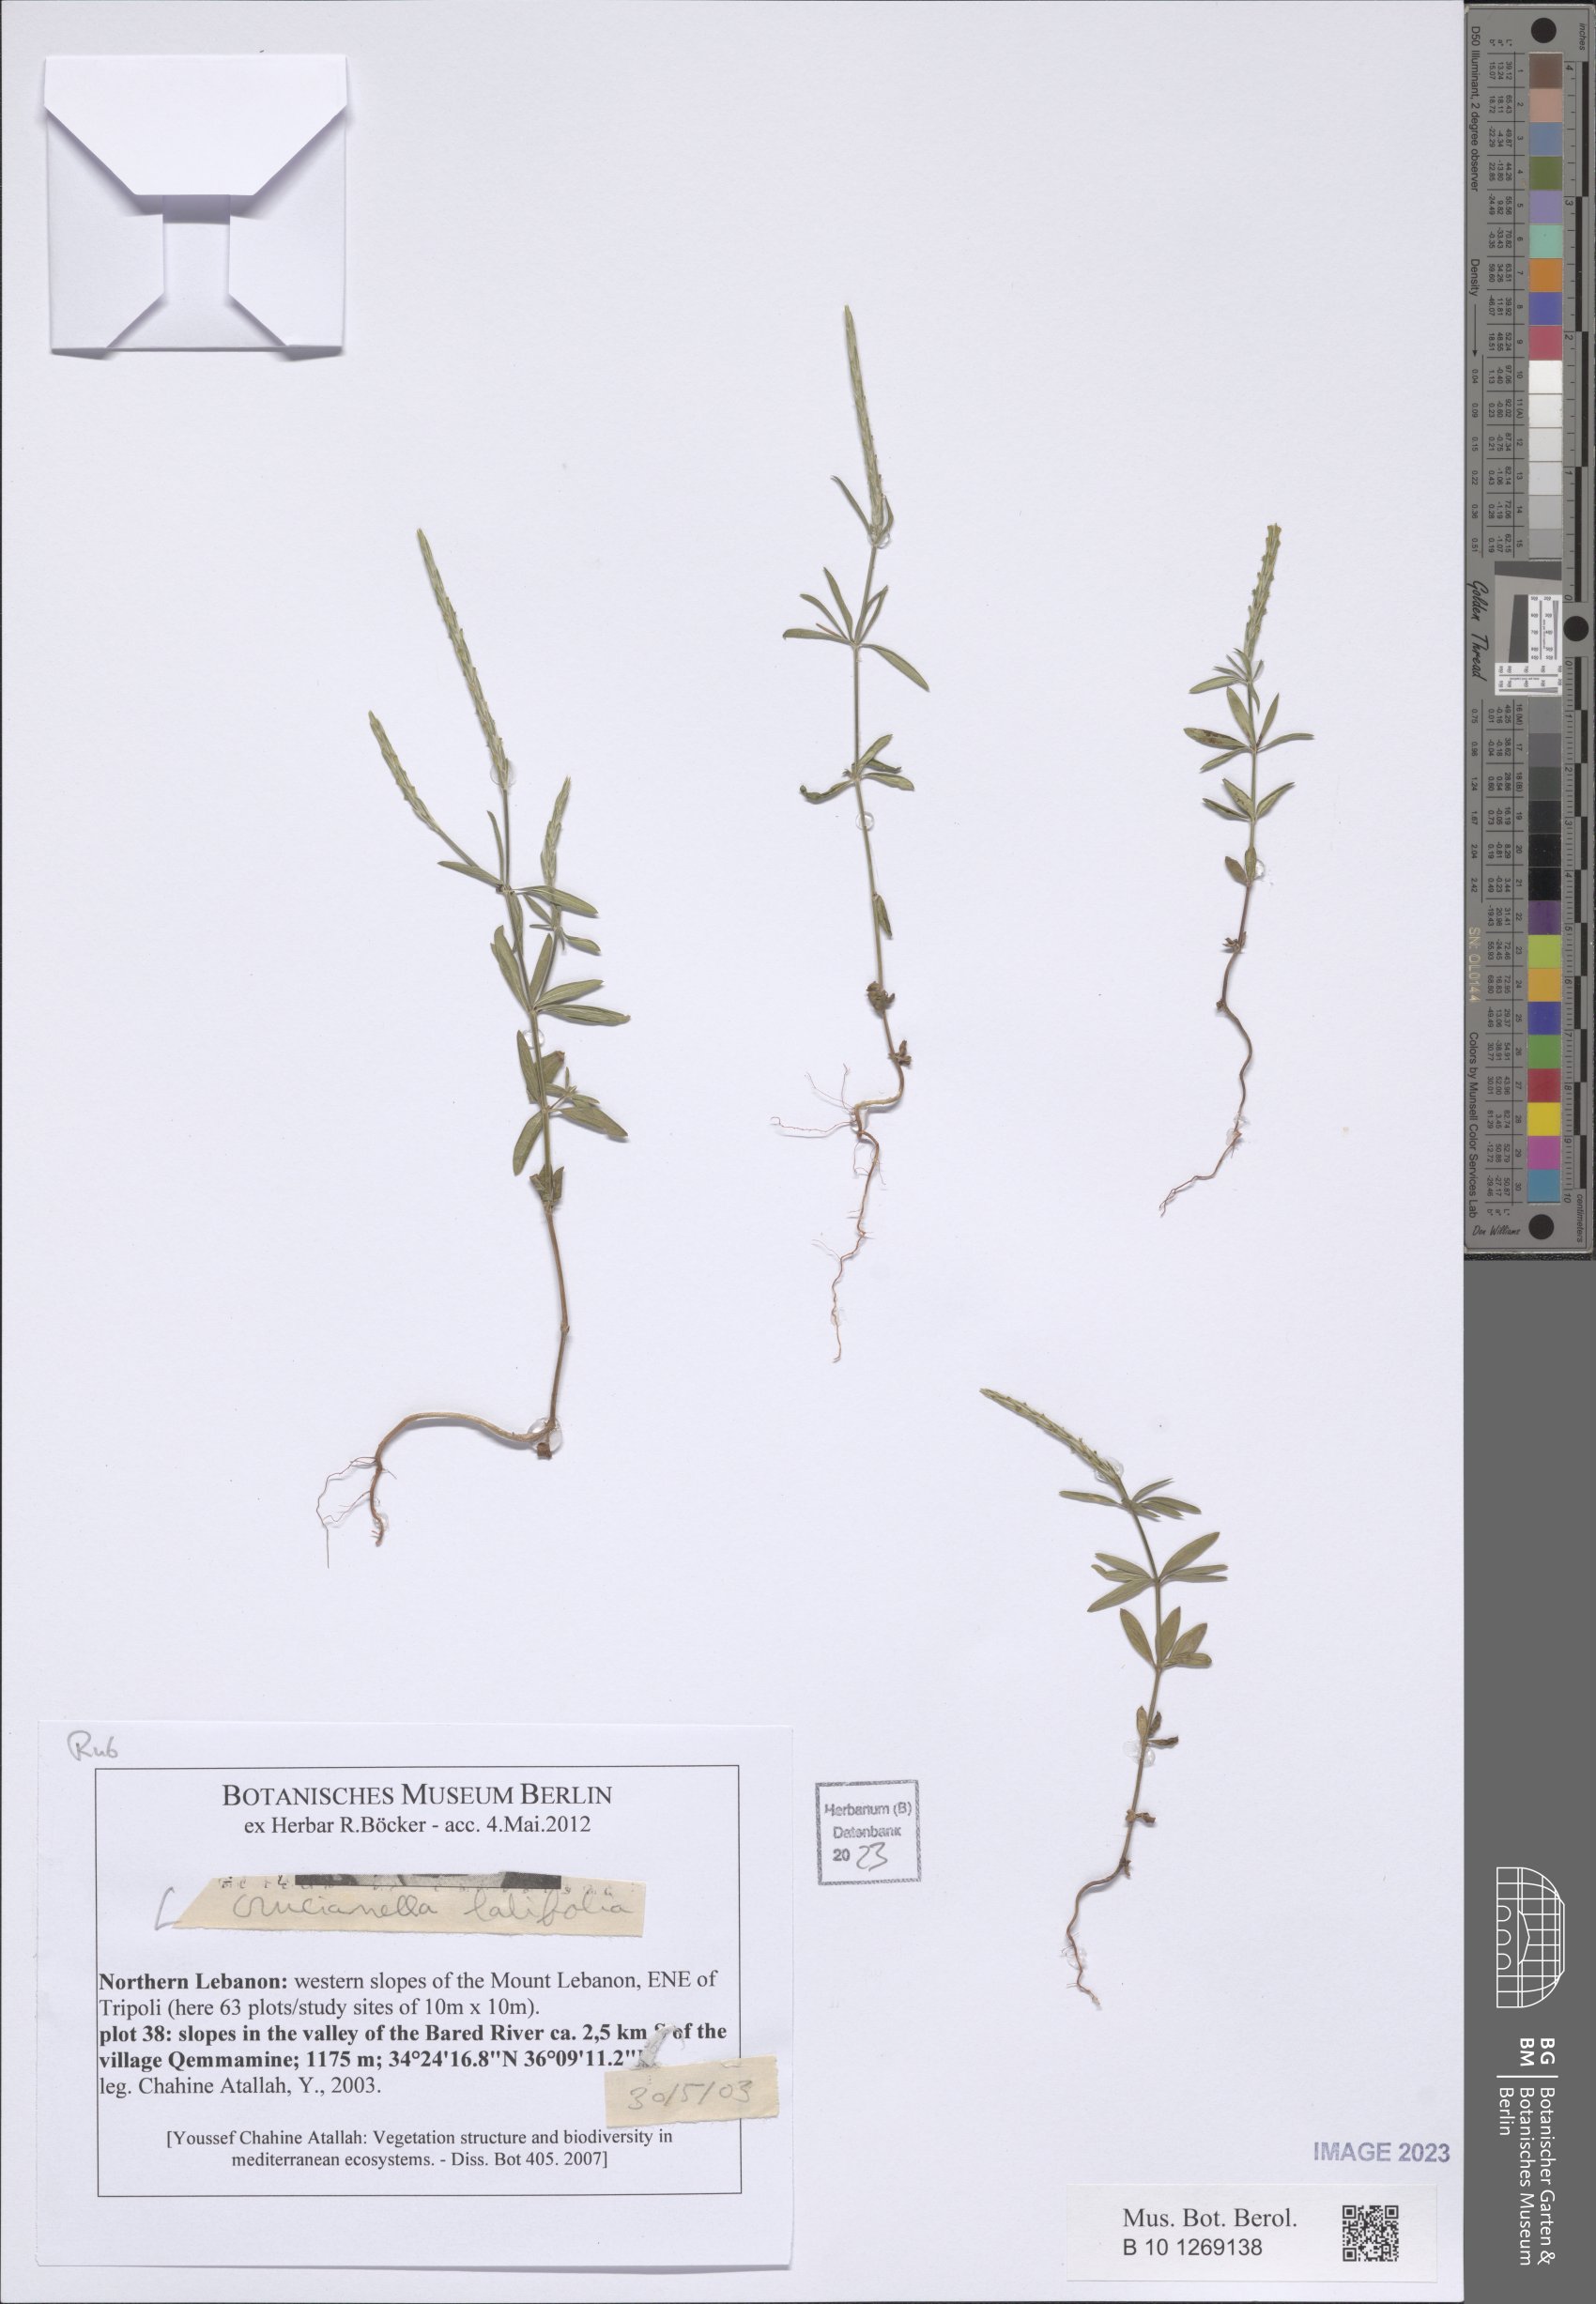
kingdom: Plantae
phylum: Tracheophyta
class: Magnoliopsida
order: Gentianales
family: Rubiaceae
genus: Crucianella
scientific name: Crucianella latifolia
